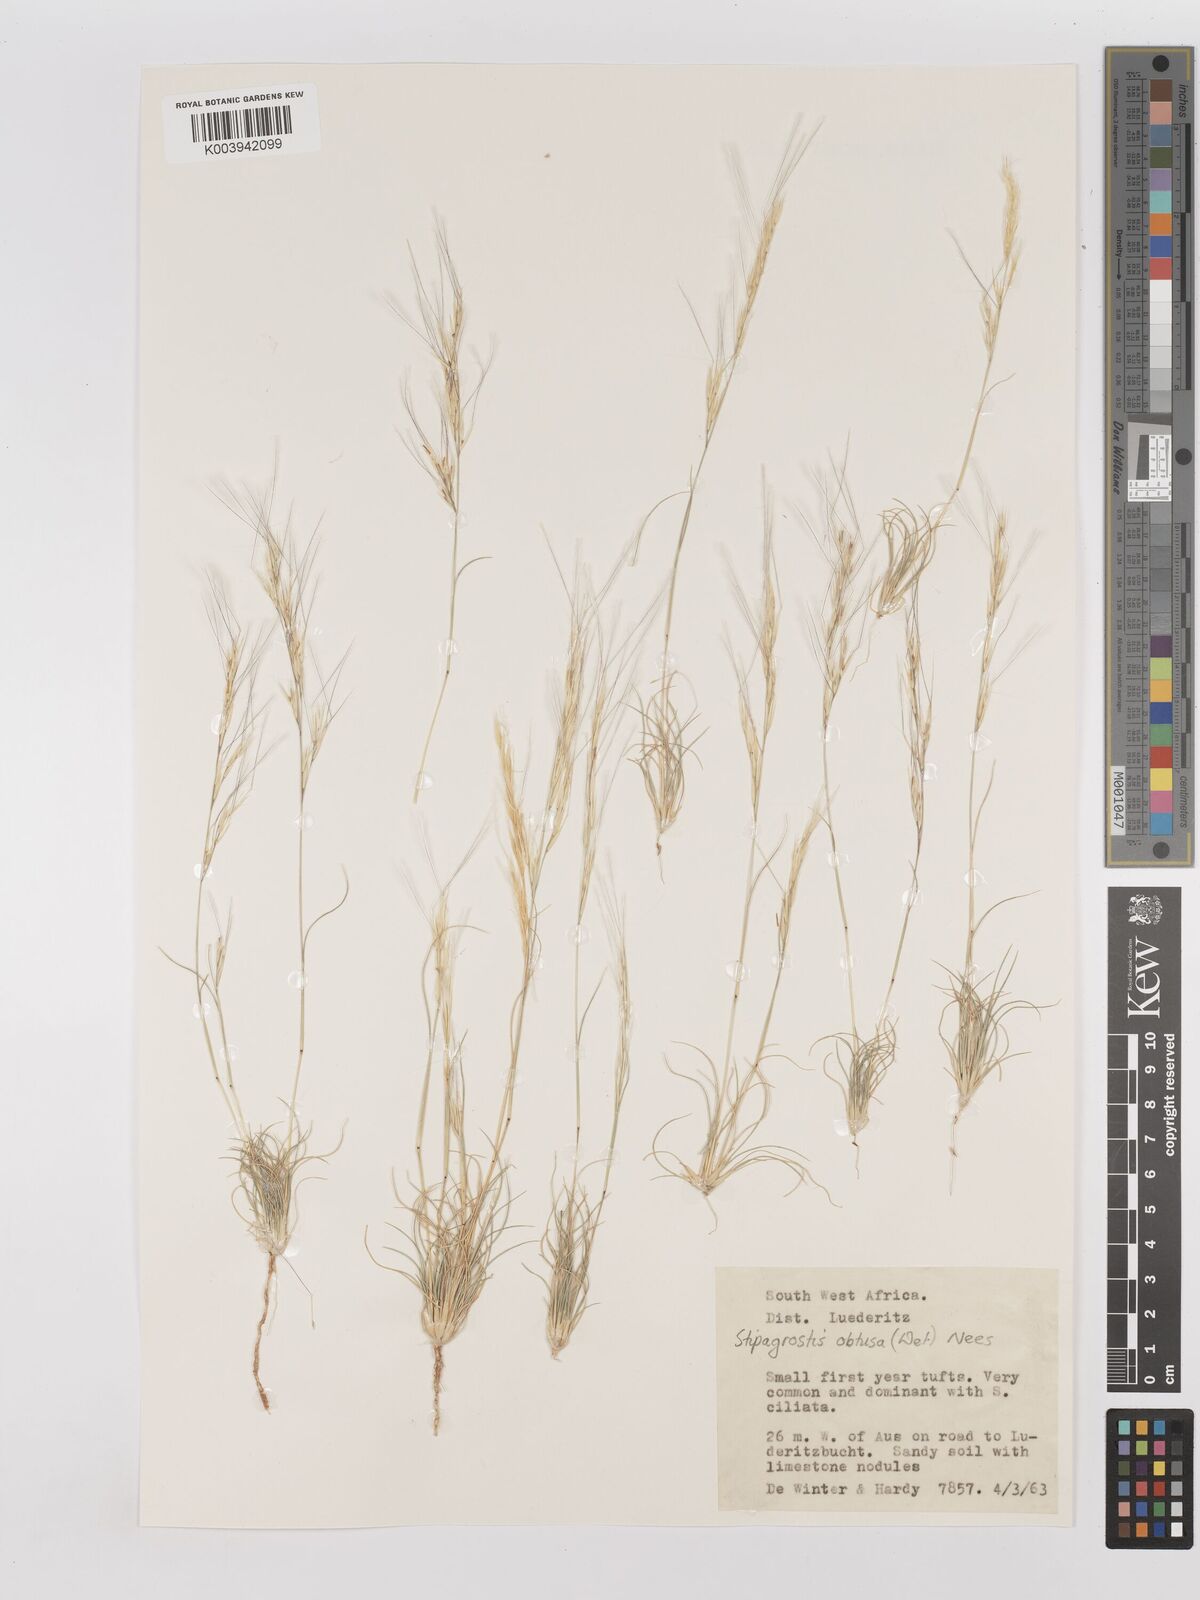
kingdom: Plantae
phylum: Tracheophyta
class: Liliopsida
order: Poales
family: Poaceae
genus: Stipagrostis
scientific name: Stipagrostis obtusa
